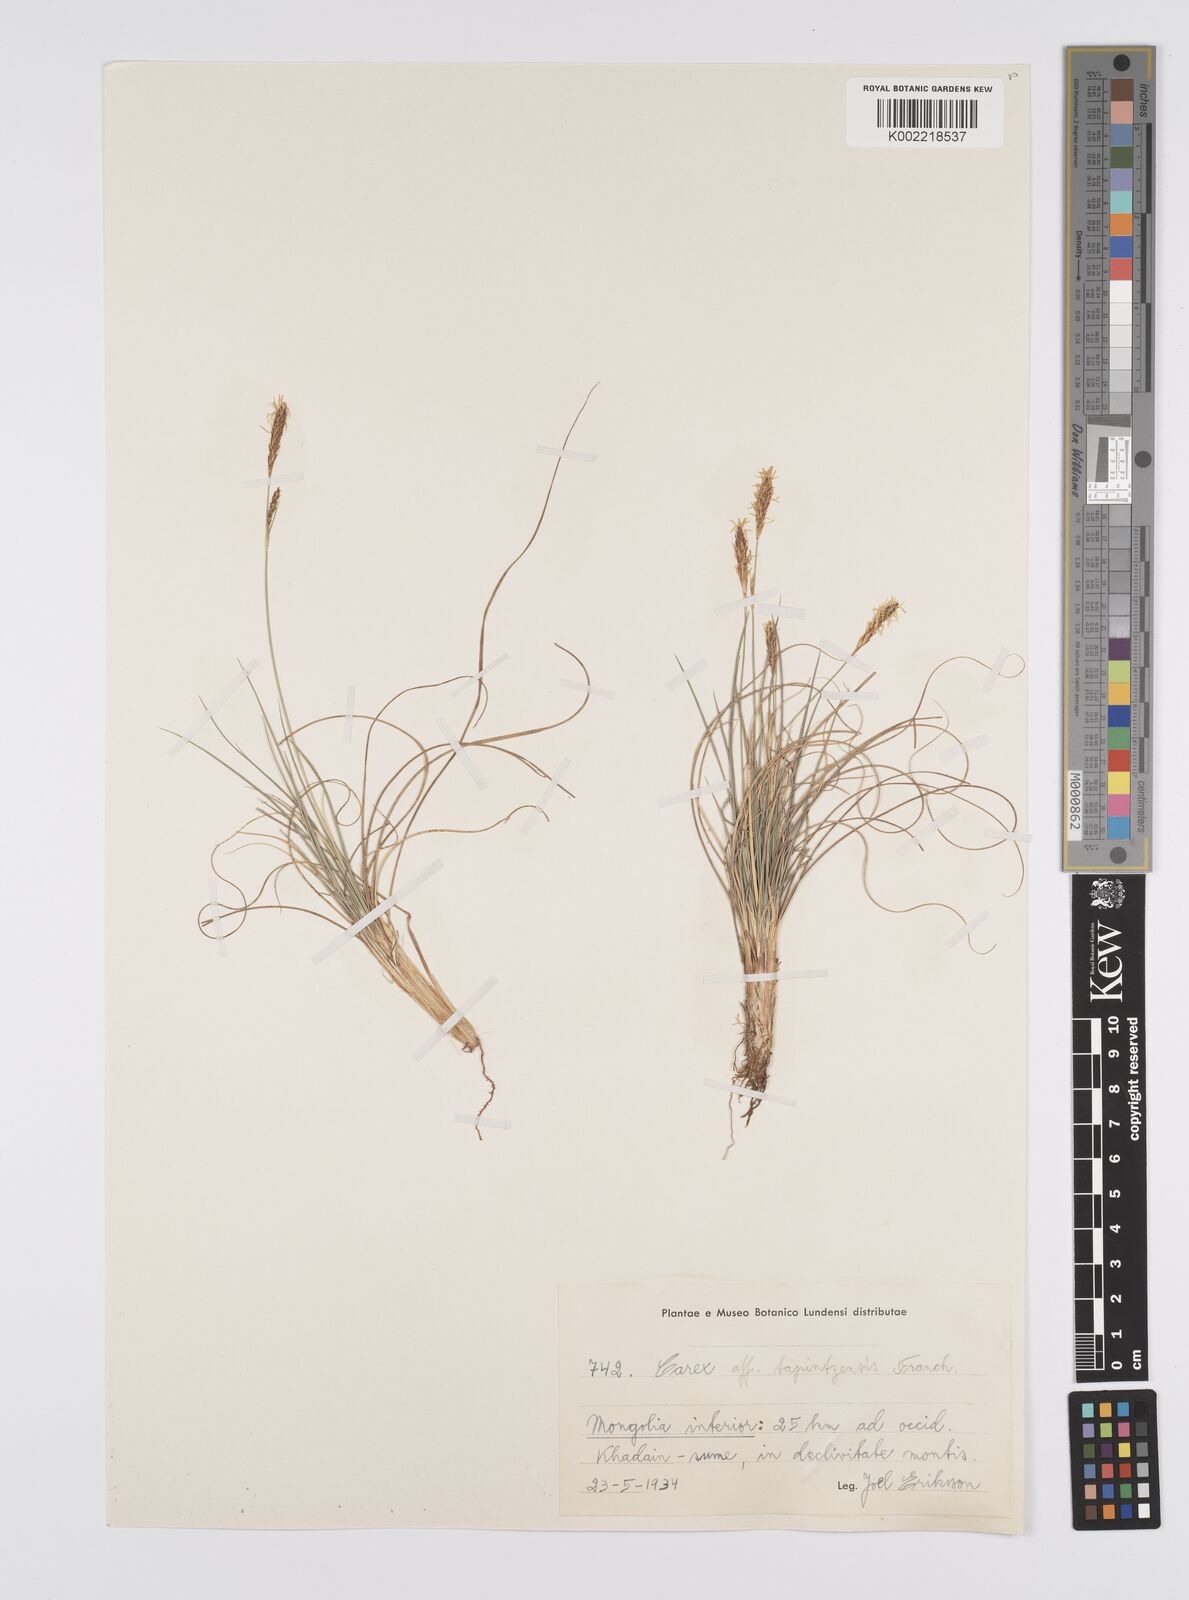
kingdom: Plantae
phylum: Tracheophyta
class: Liliopsida
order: Poales
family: Cyperaceae
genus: Carex
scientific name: Carex tapintzensis
